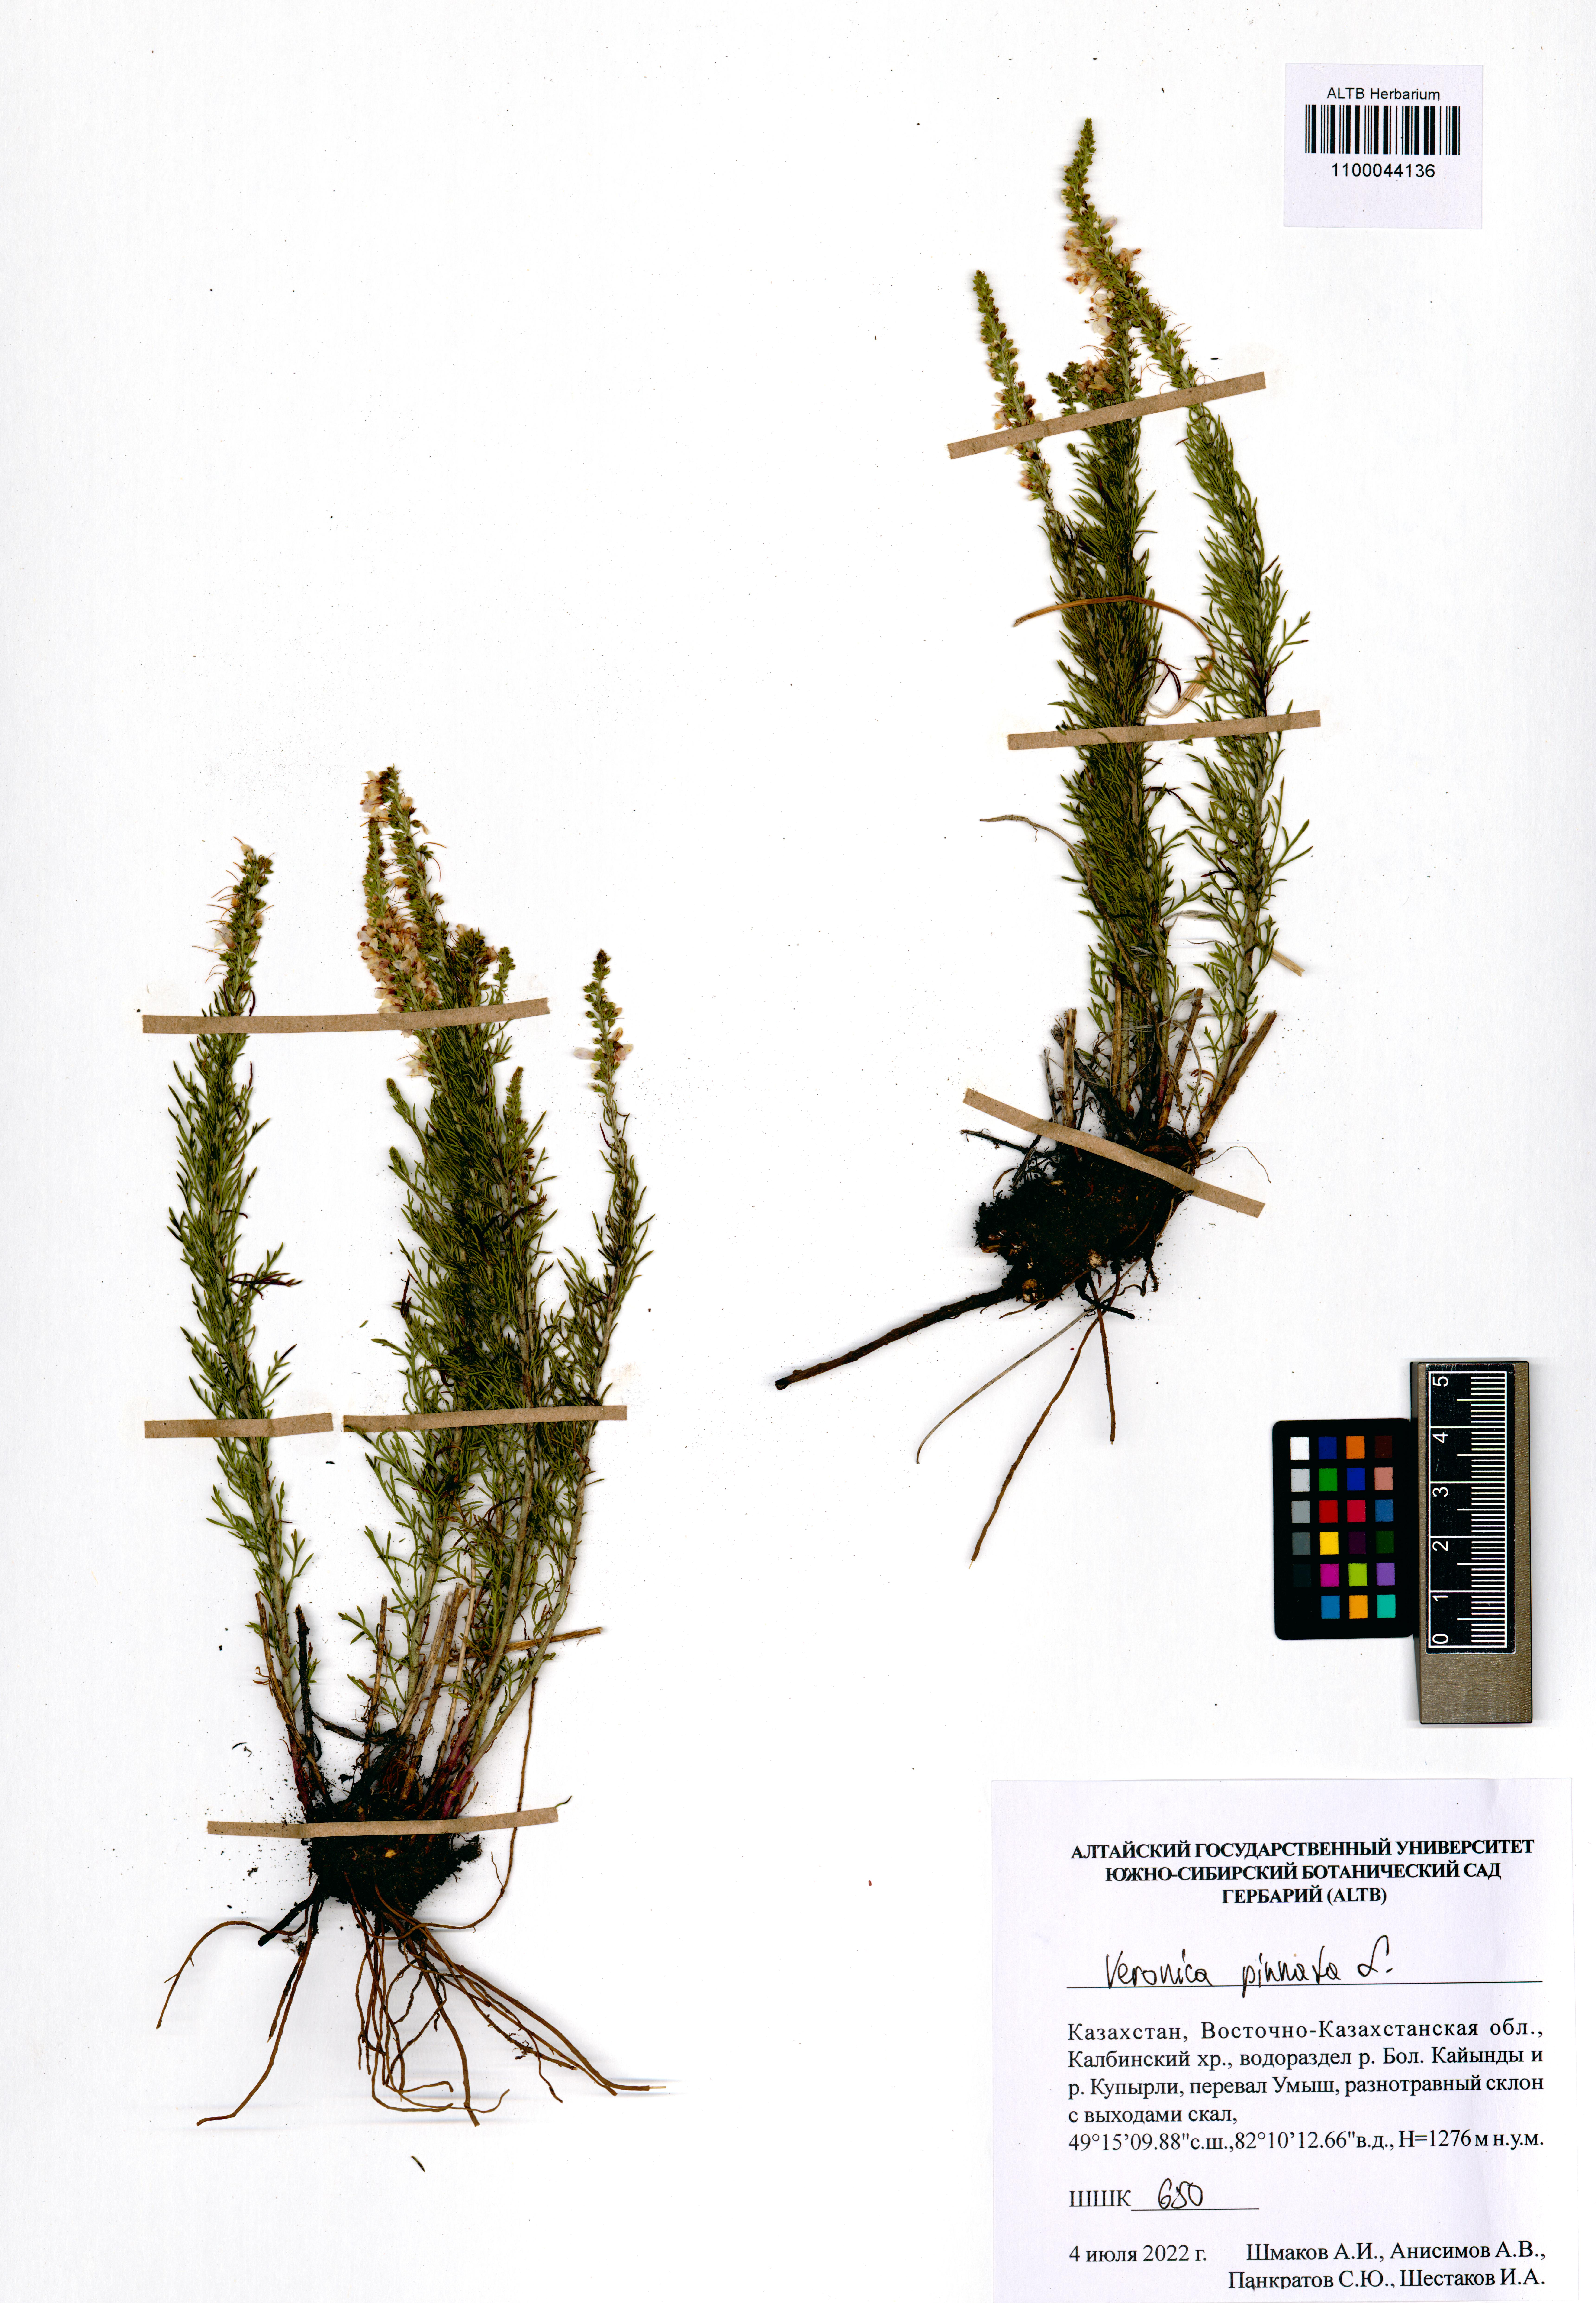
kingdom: Plantae
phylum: Tracheophyta
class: Magnoliopsida
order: Lamiales
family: Plantaginaceae
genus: Veronica
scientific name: Veronica pinnata
